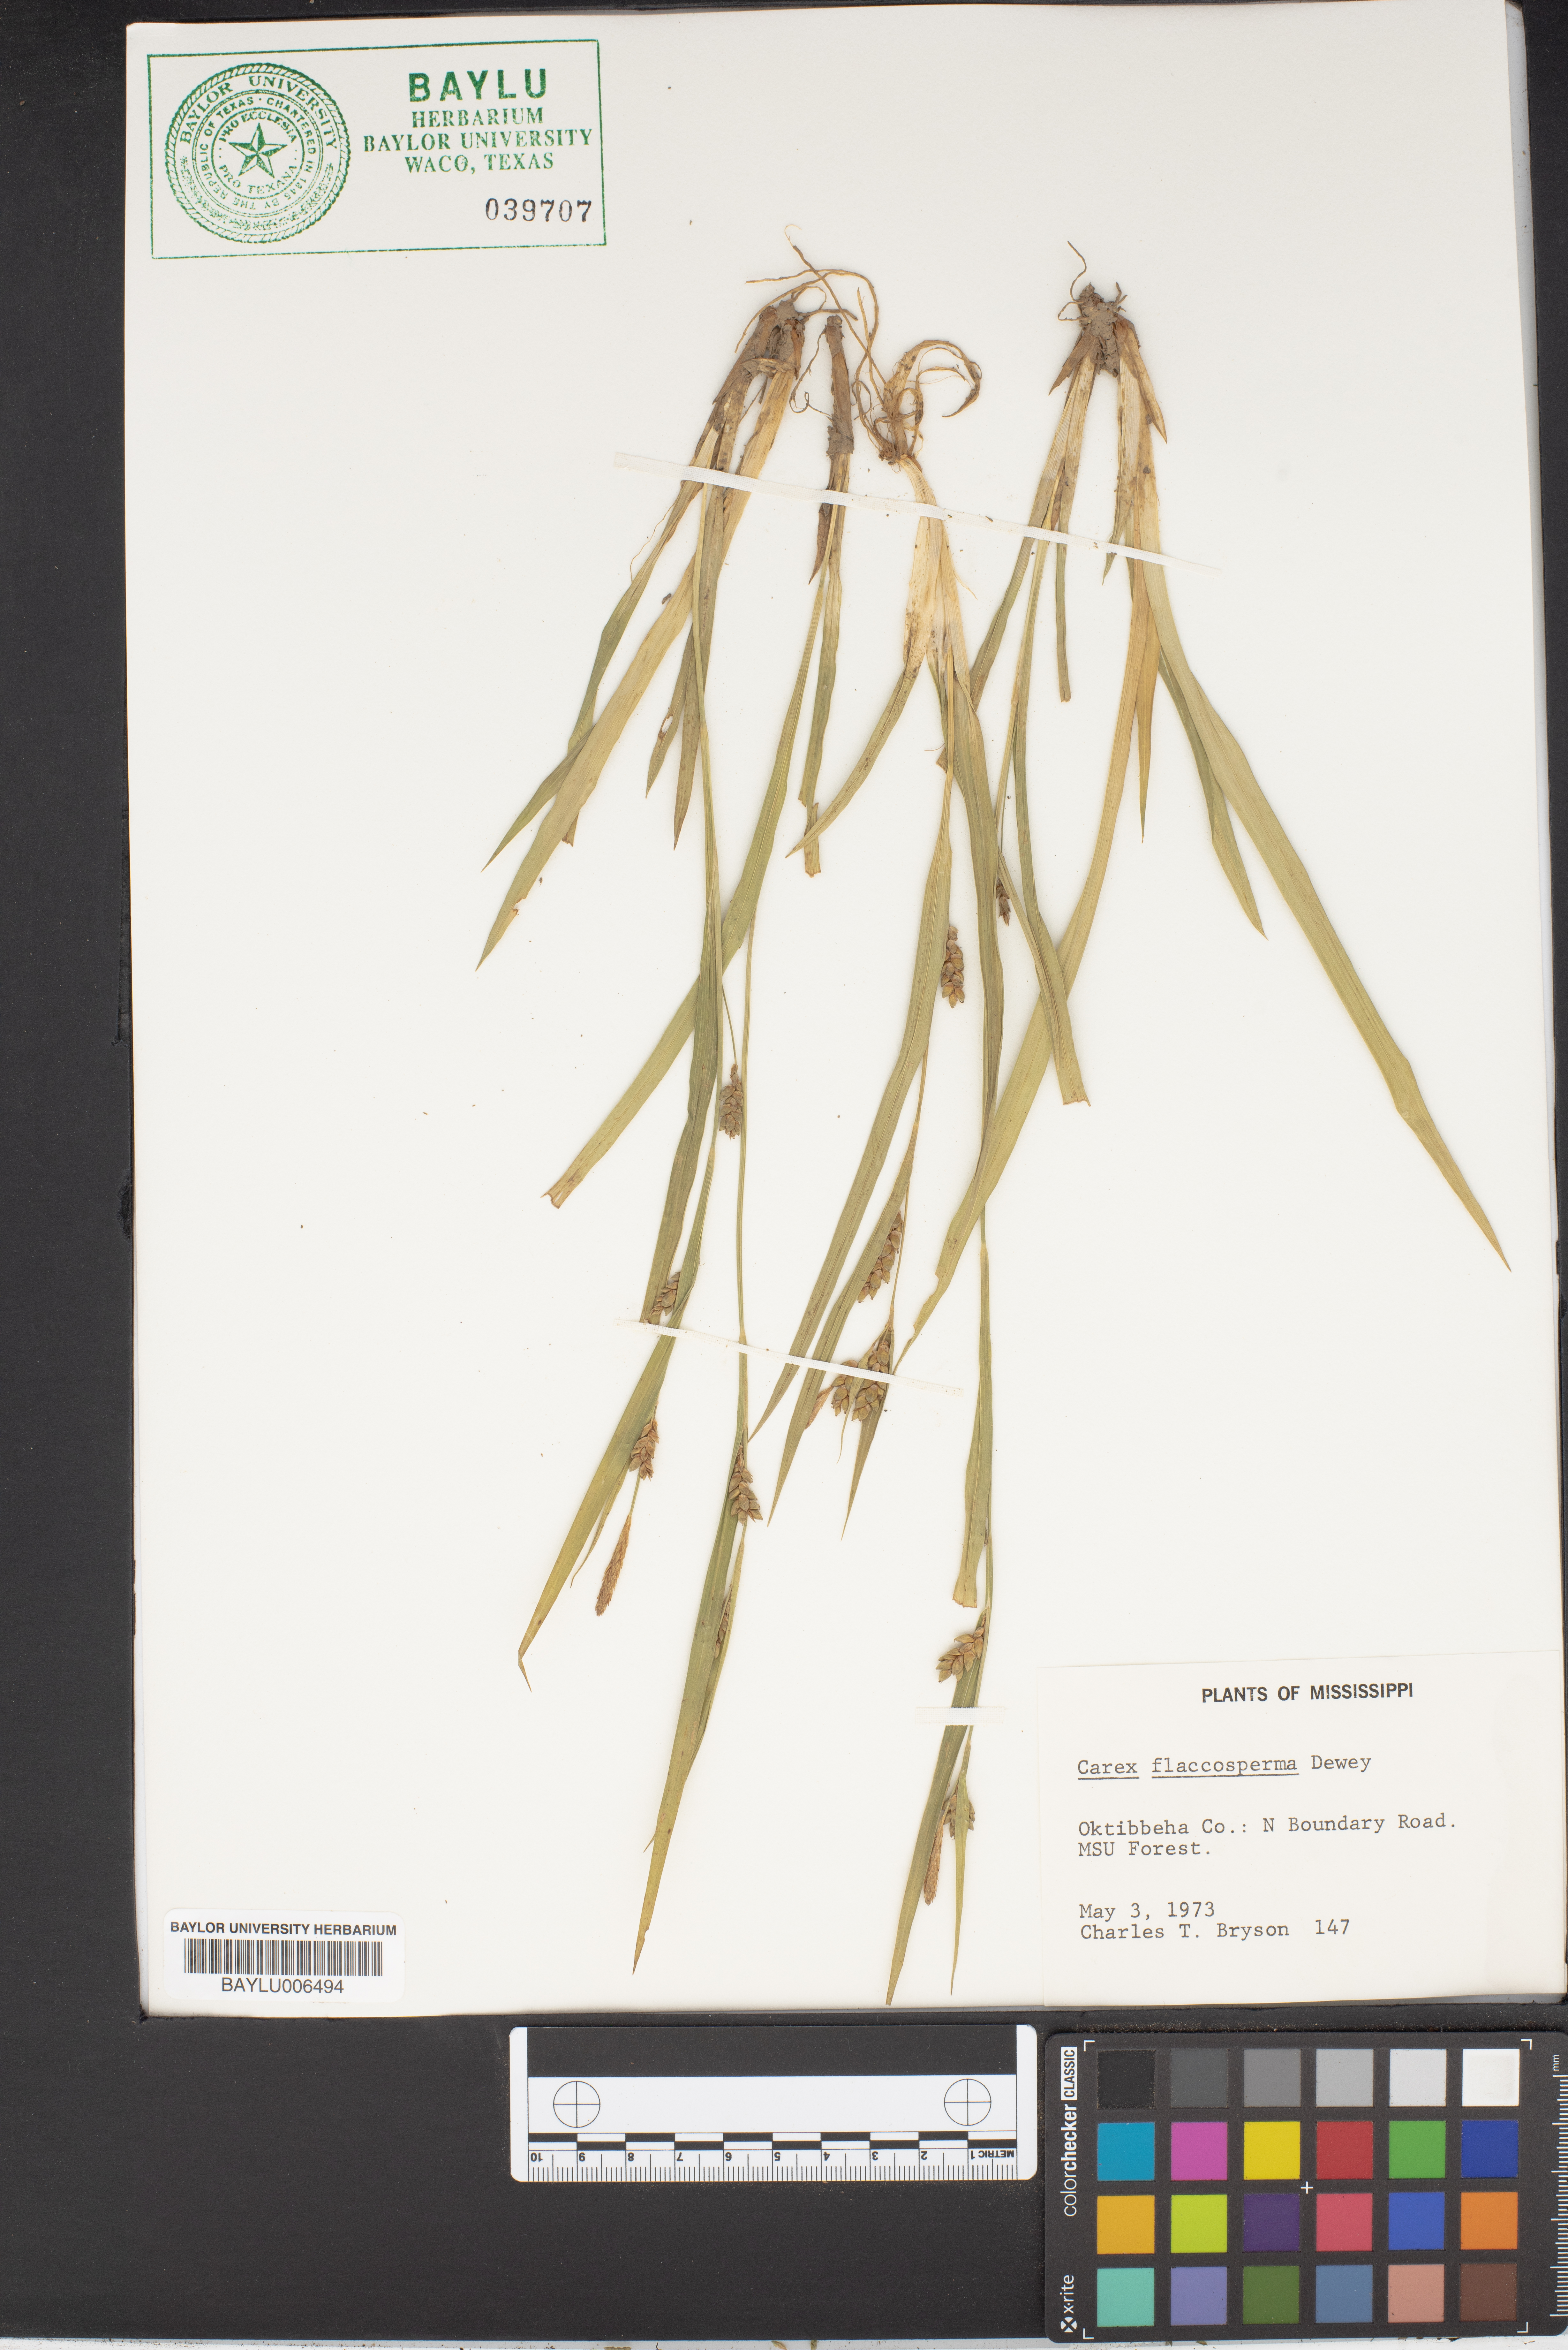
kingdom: Plantae
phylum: Tracheophyta
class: Liliopsida
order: Poales
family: Cyperaceae
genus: Carex
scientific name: Carex flaccosperma
